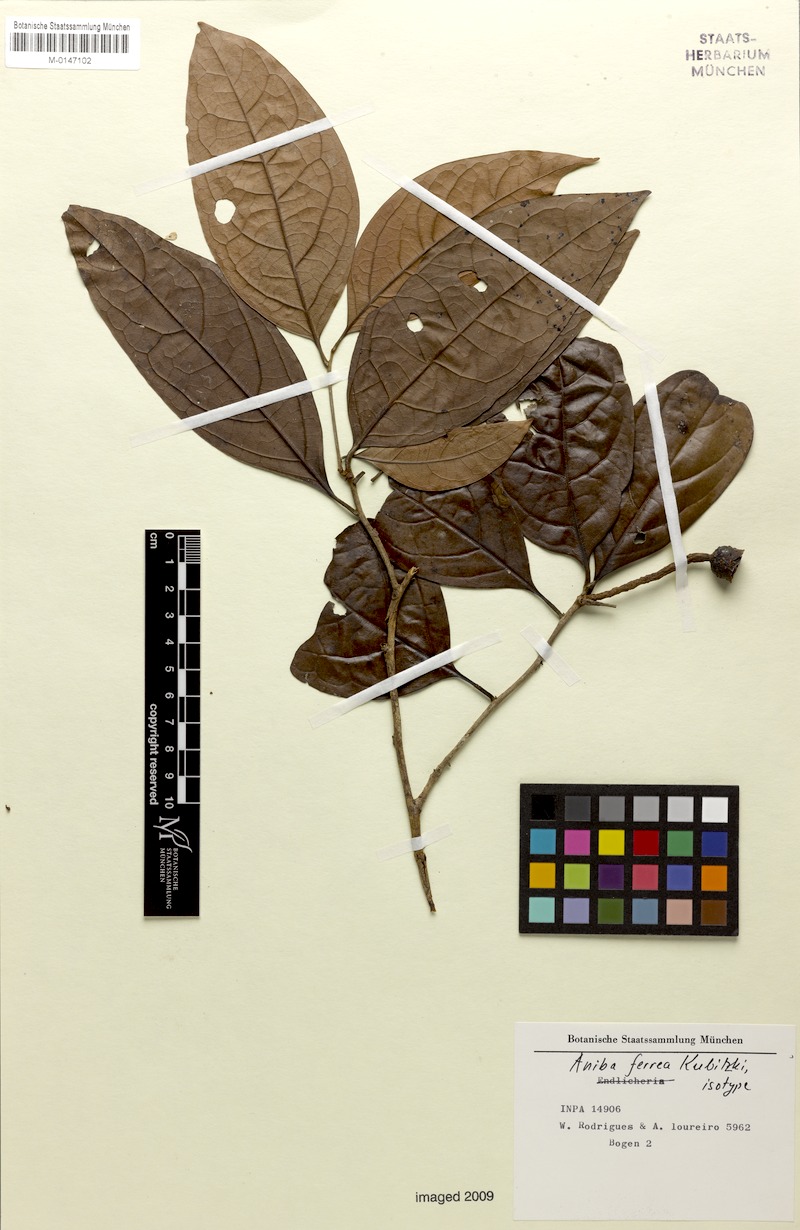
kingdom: Plantae
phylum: Tracheophyta
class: Magnoliopsida
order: Laurales
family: Lauraceae
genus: Aniba
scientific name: Aniba ferrea
